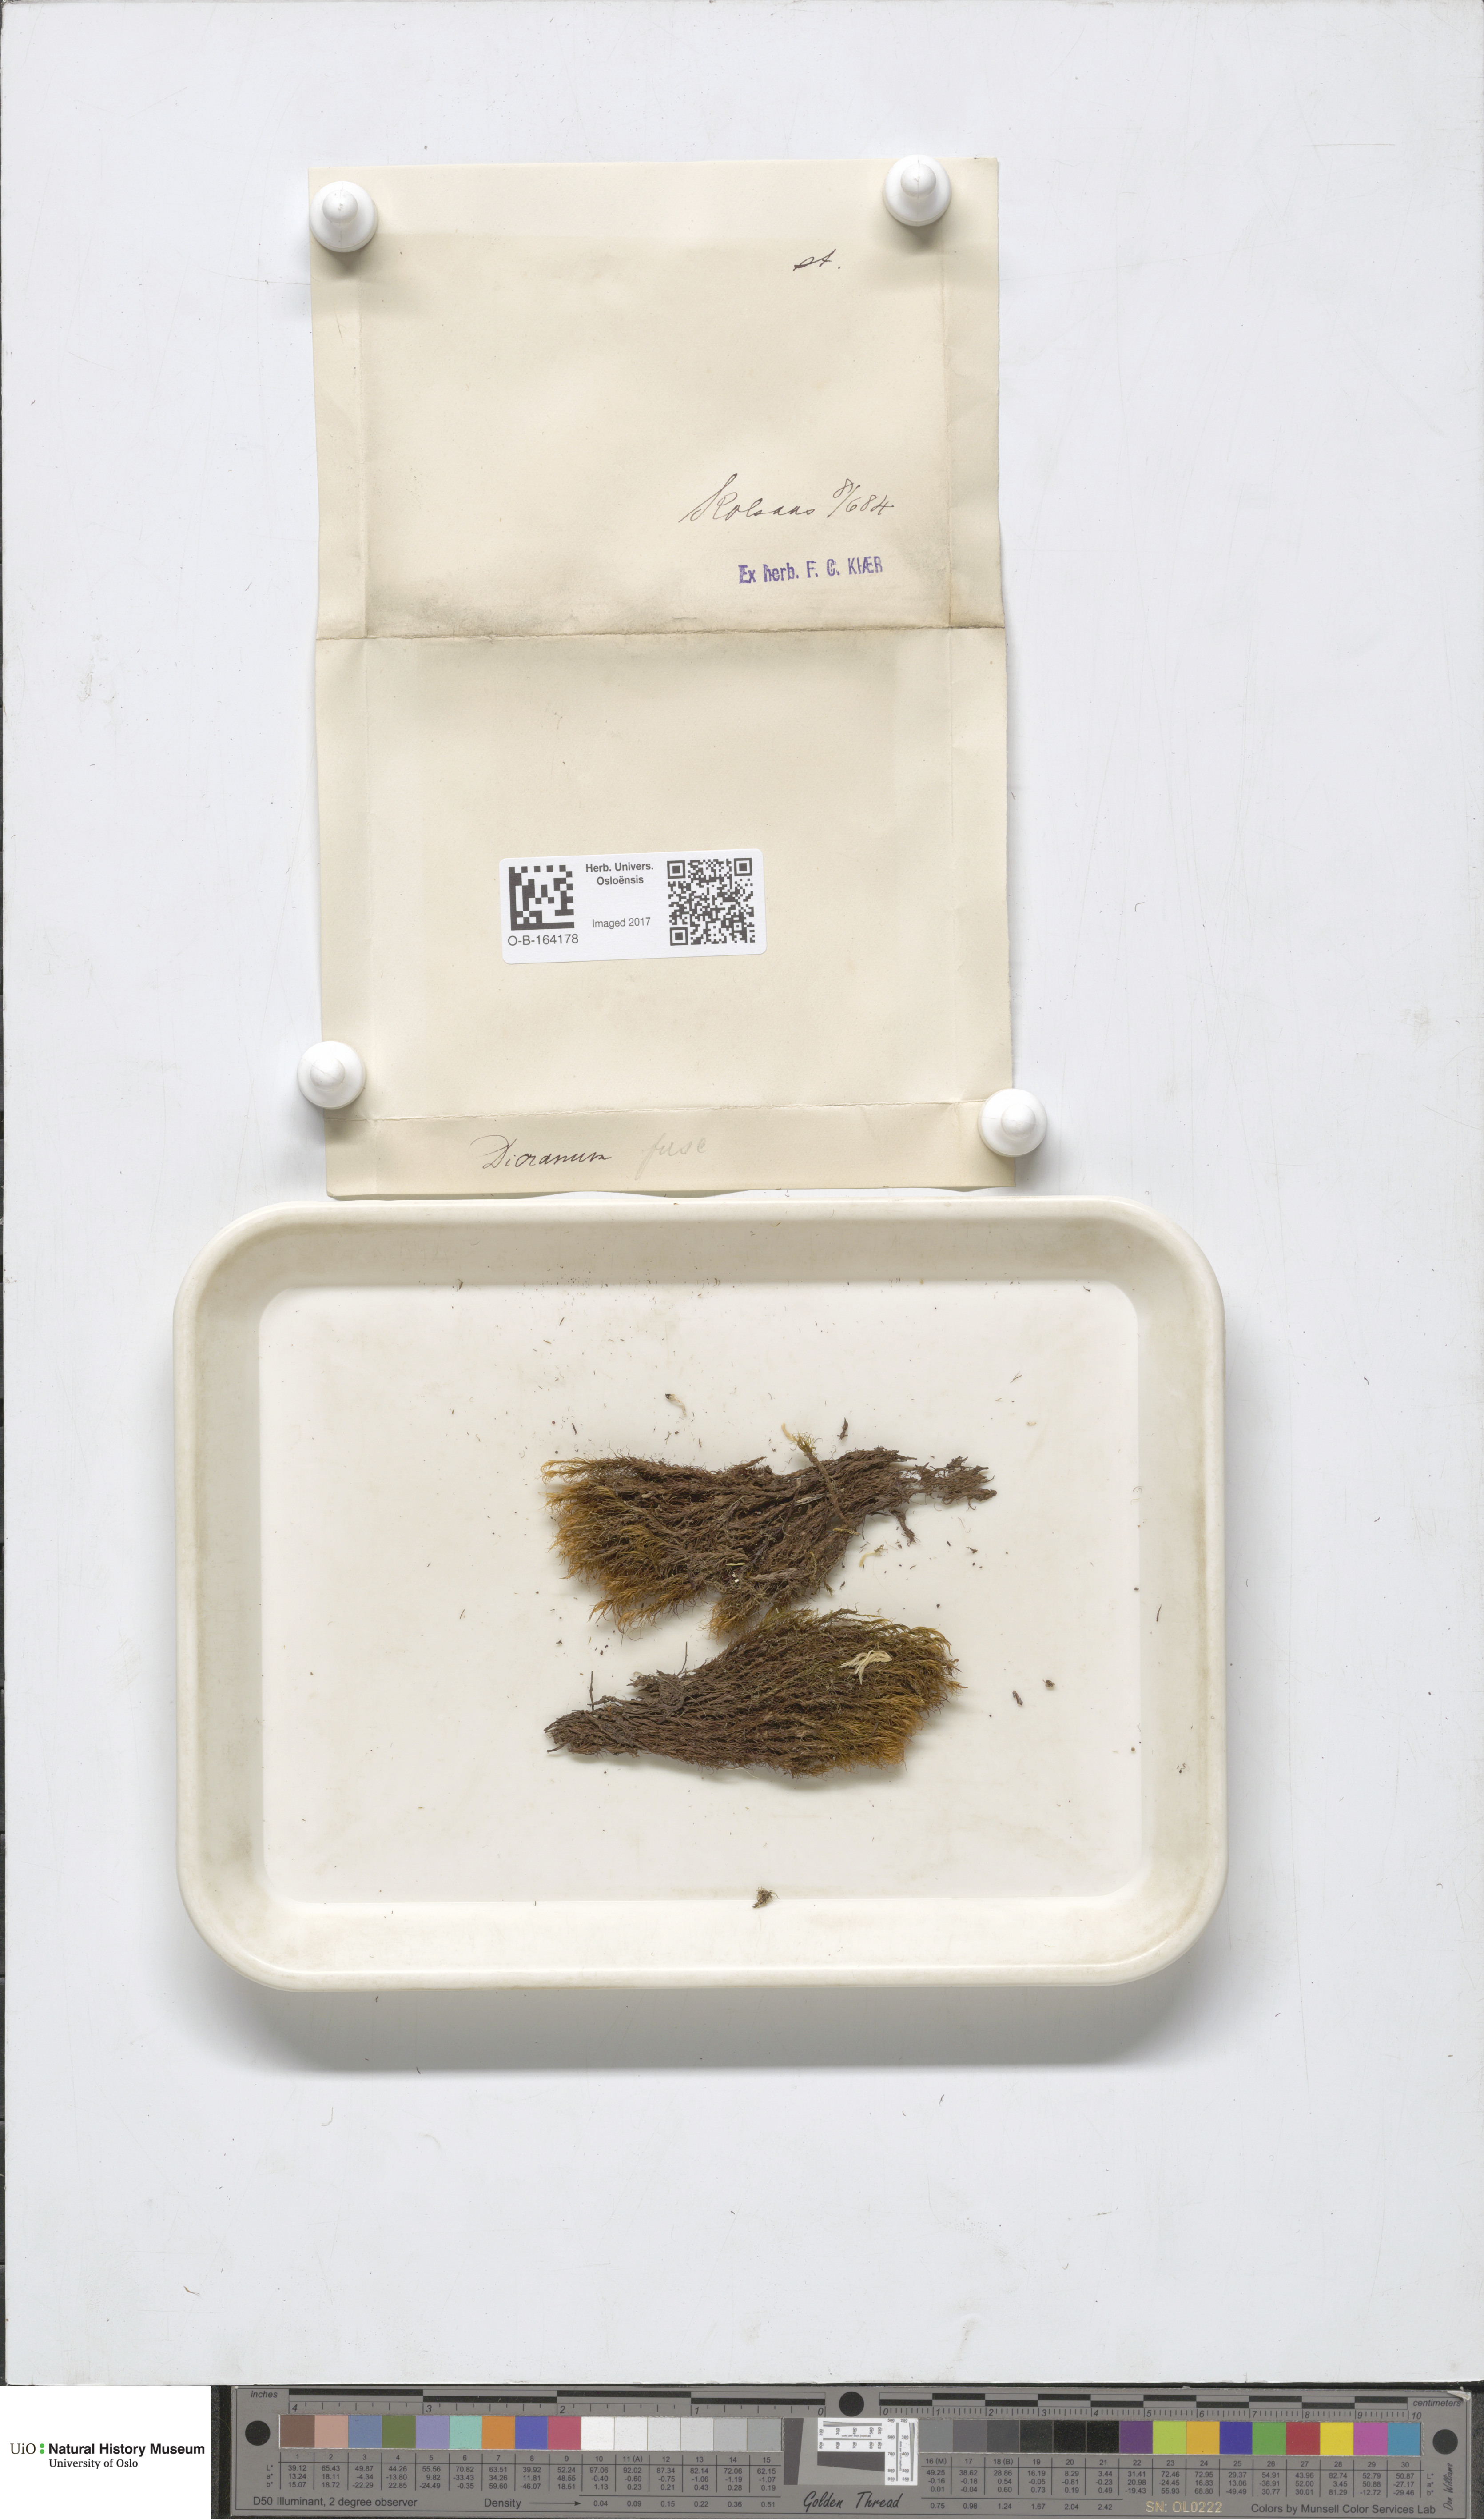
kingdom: Plantae
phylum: Bryophyta
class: Bryopsida
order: Dicranales
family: Dicranaceae
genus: Dicranum
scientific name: Dicranum
